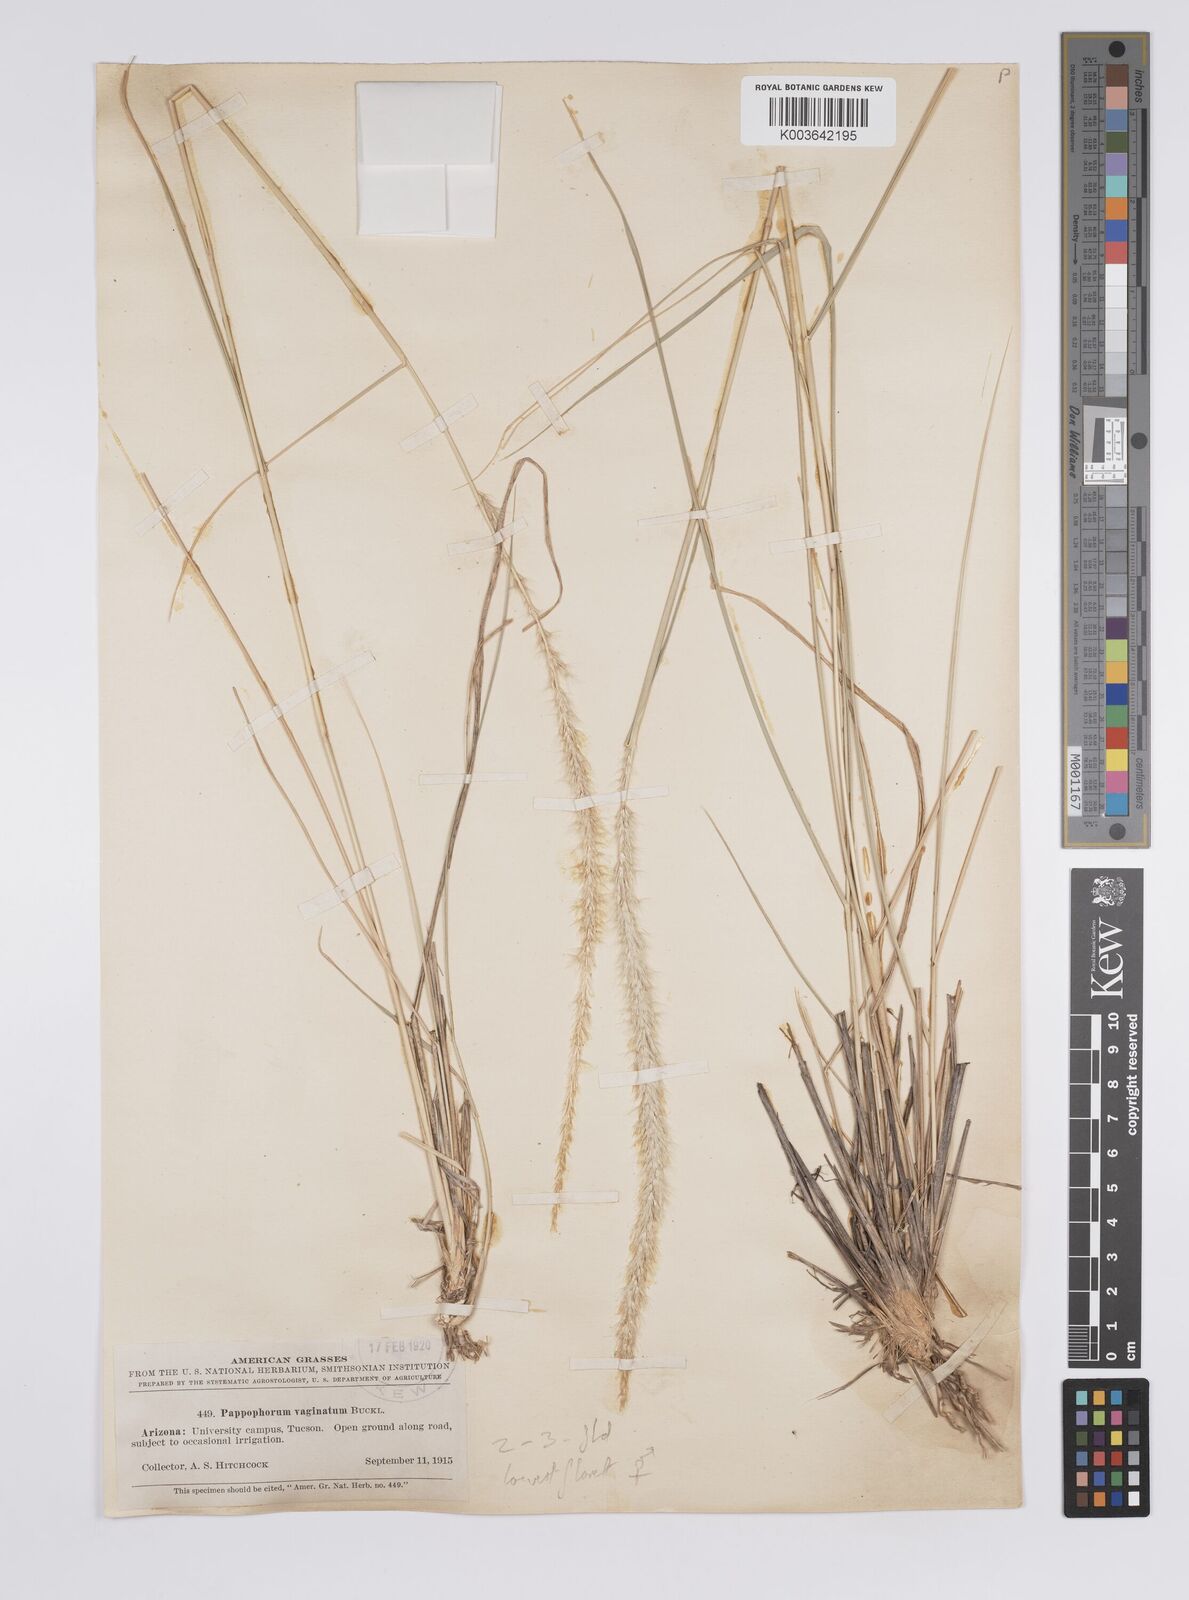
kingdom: Plantae
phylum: Tracheophyta
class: Liliopsida
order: Poales
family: Poaceae
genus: Pappophorum
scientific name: Pappophorum mucronulatum
